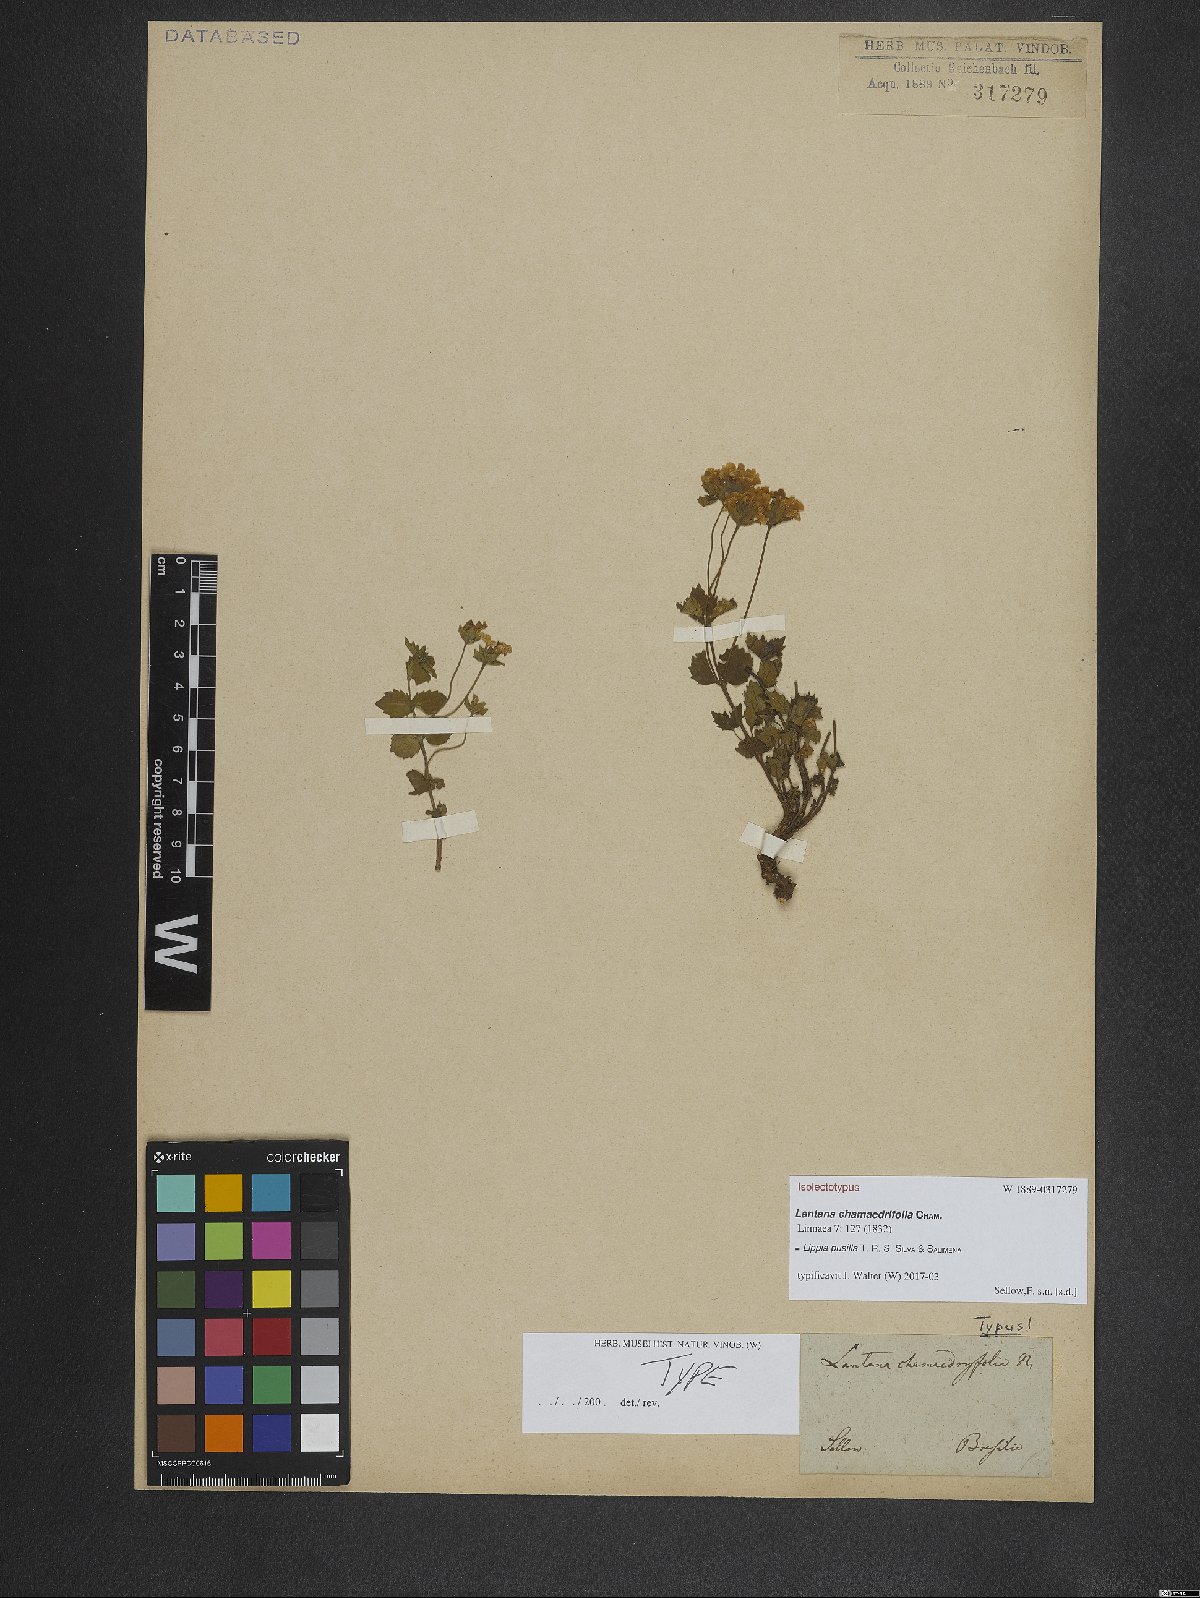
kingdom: Plantae
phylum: Tracheophyta
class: Magnoliopsida
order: Lamiales
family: Verbenaceae
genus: Lippia
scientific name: Lippia pusilla
